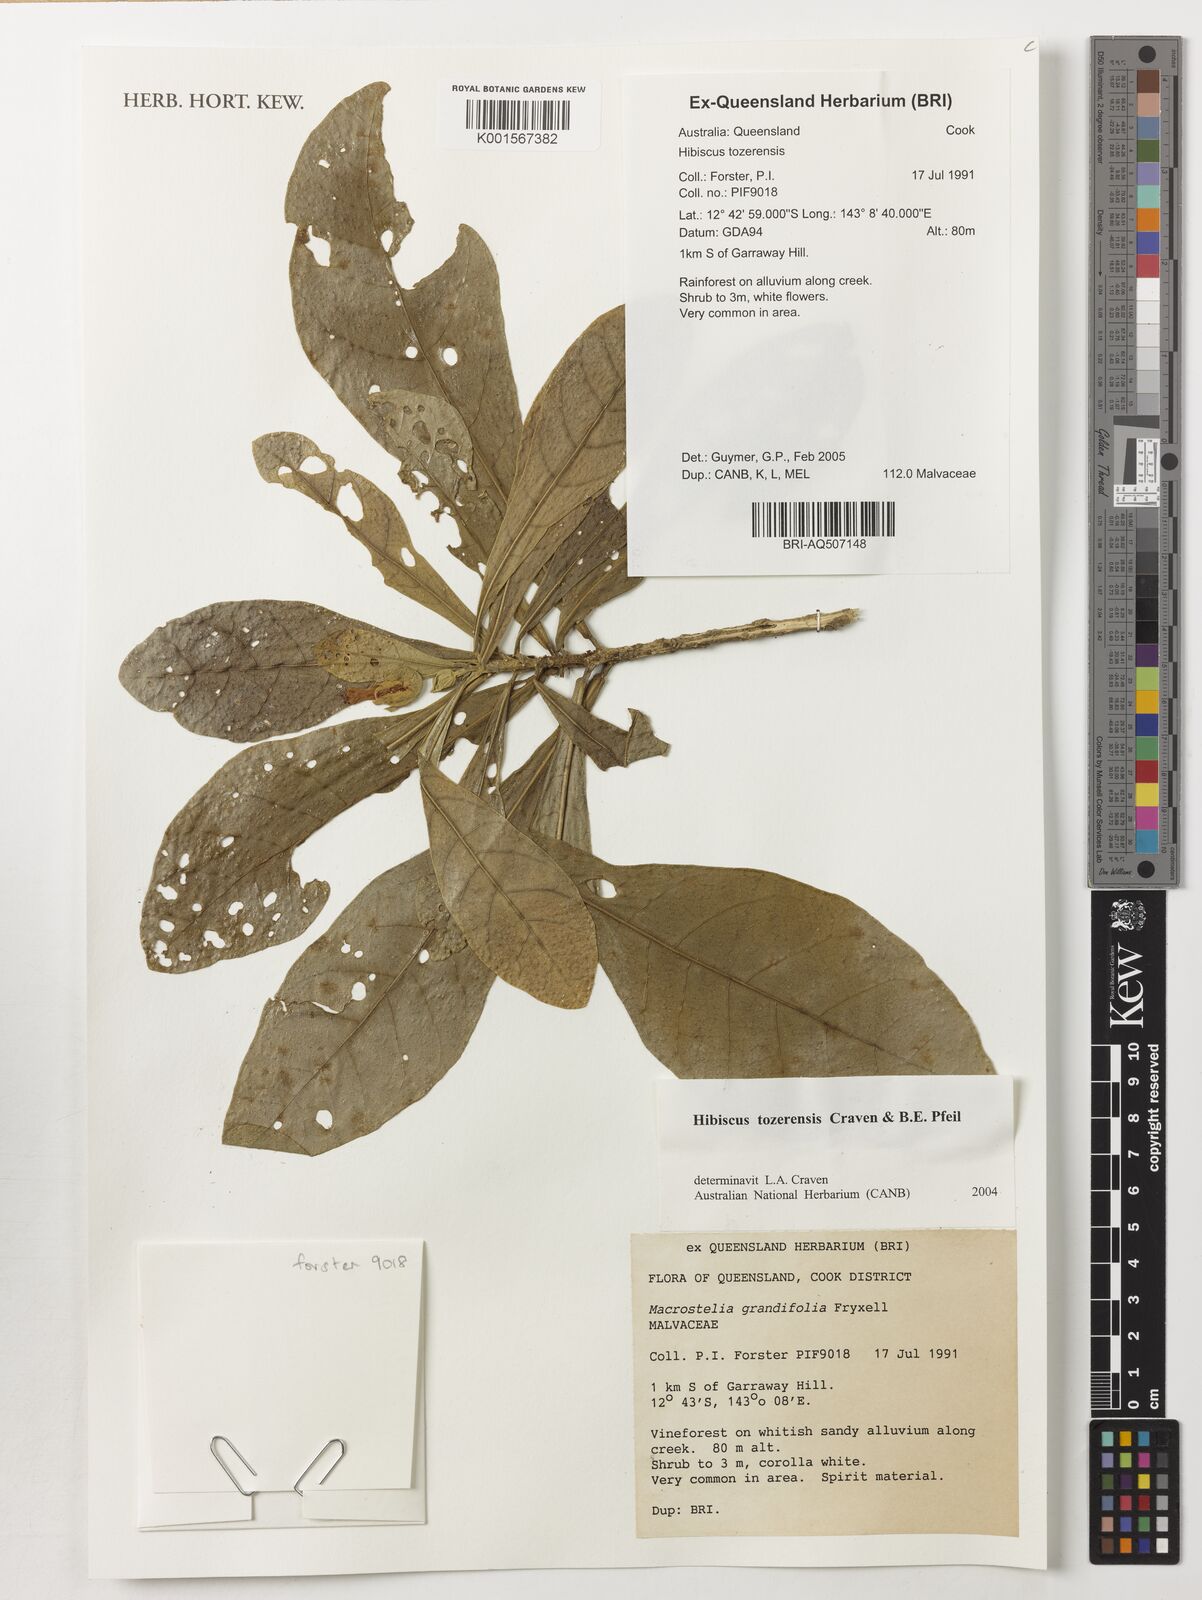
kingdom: Plantae
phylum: Tracheophyta
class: Magnoliopsida
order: Malvales
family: Malvaceae
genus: Hibiscus
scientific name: Hibiscus tozerensis
